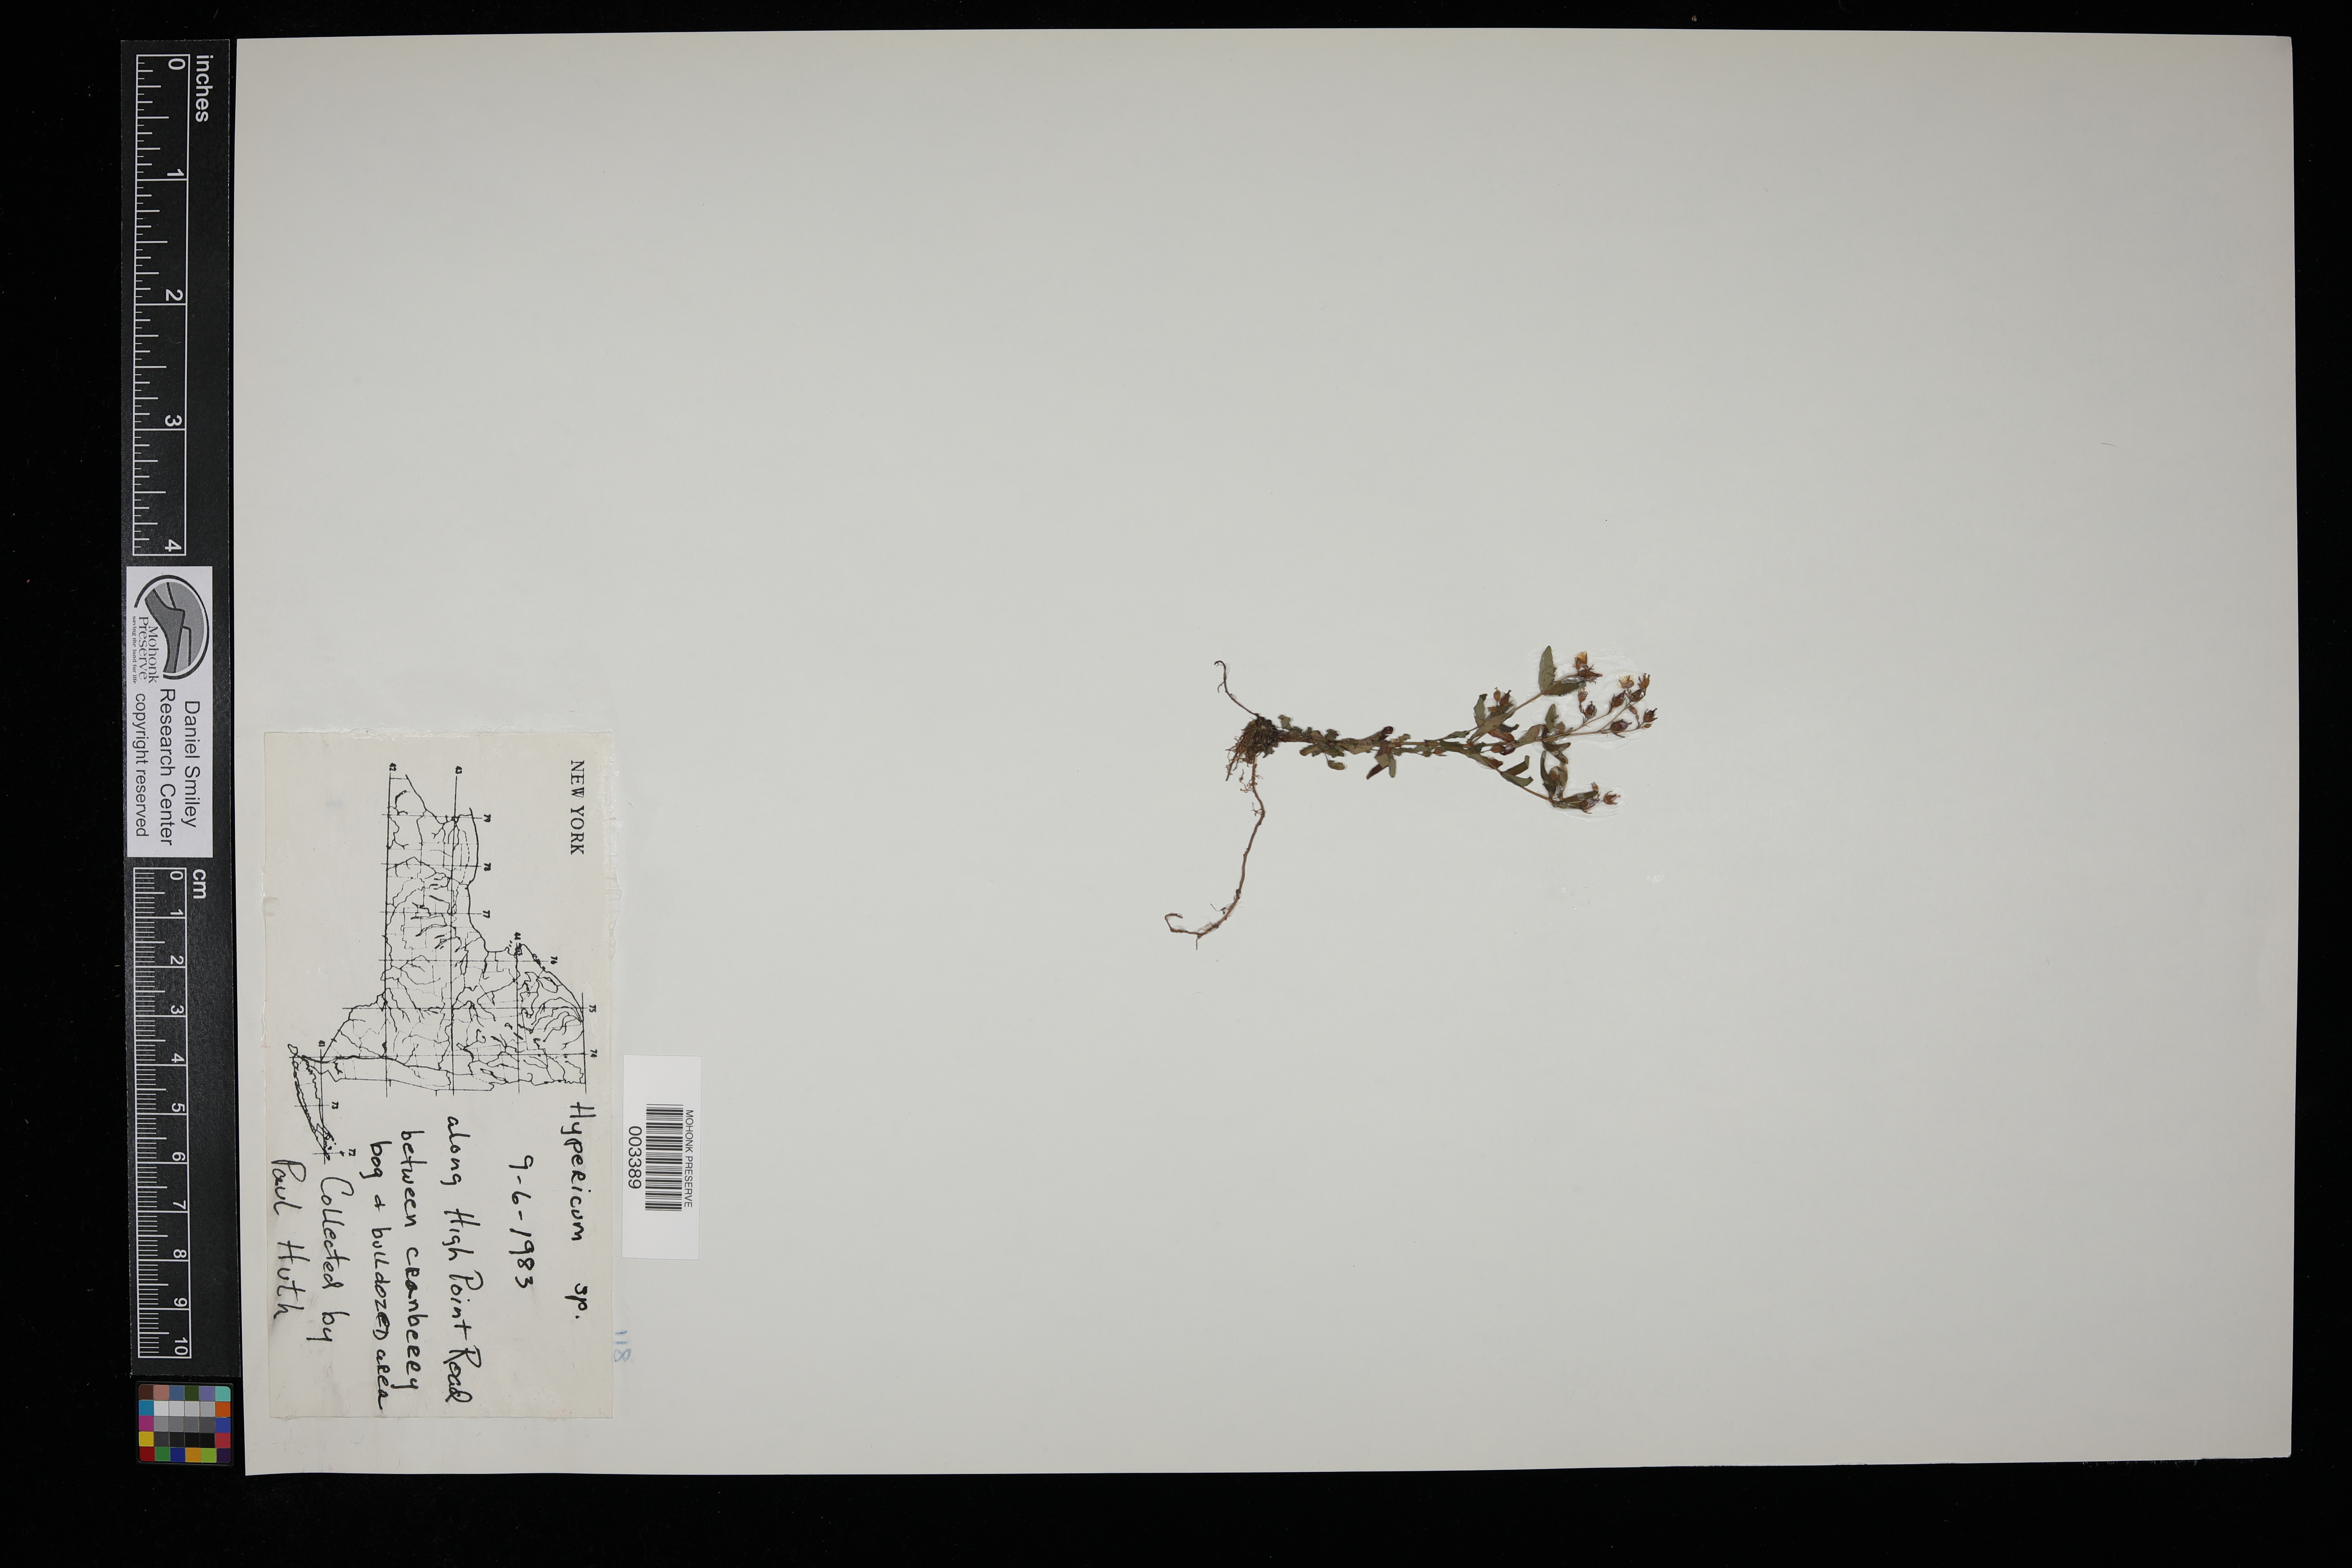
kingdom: Plantae
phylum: Tracheophyta
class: Magnoliopsida
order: Malpighiales
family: Hypericaceae
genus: Hypericum
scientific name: Hypericum
